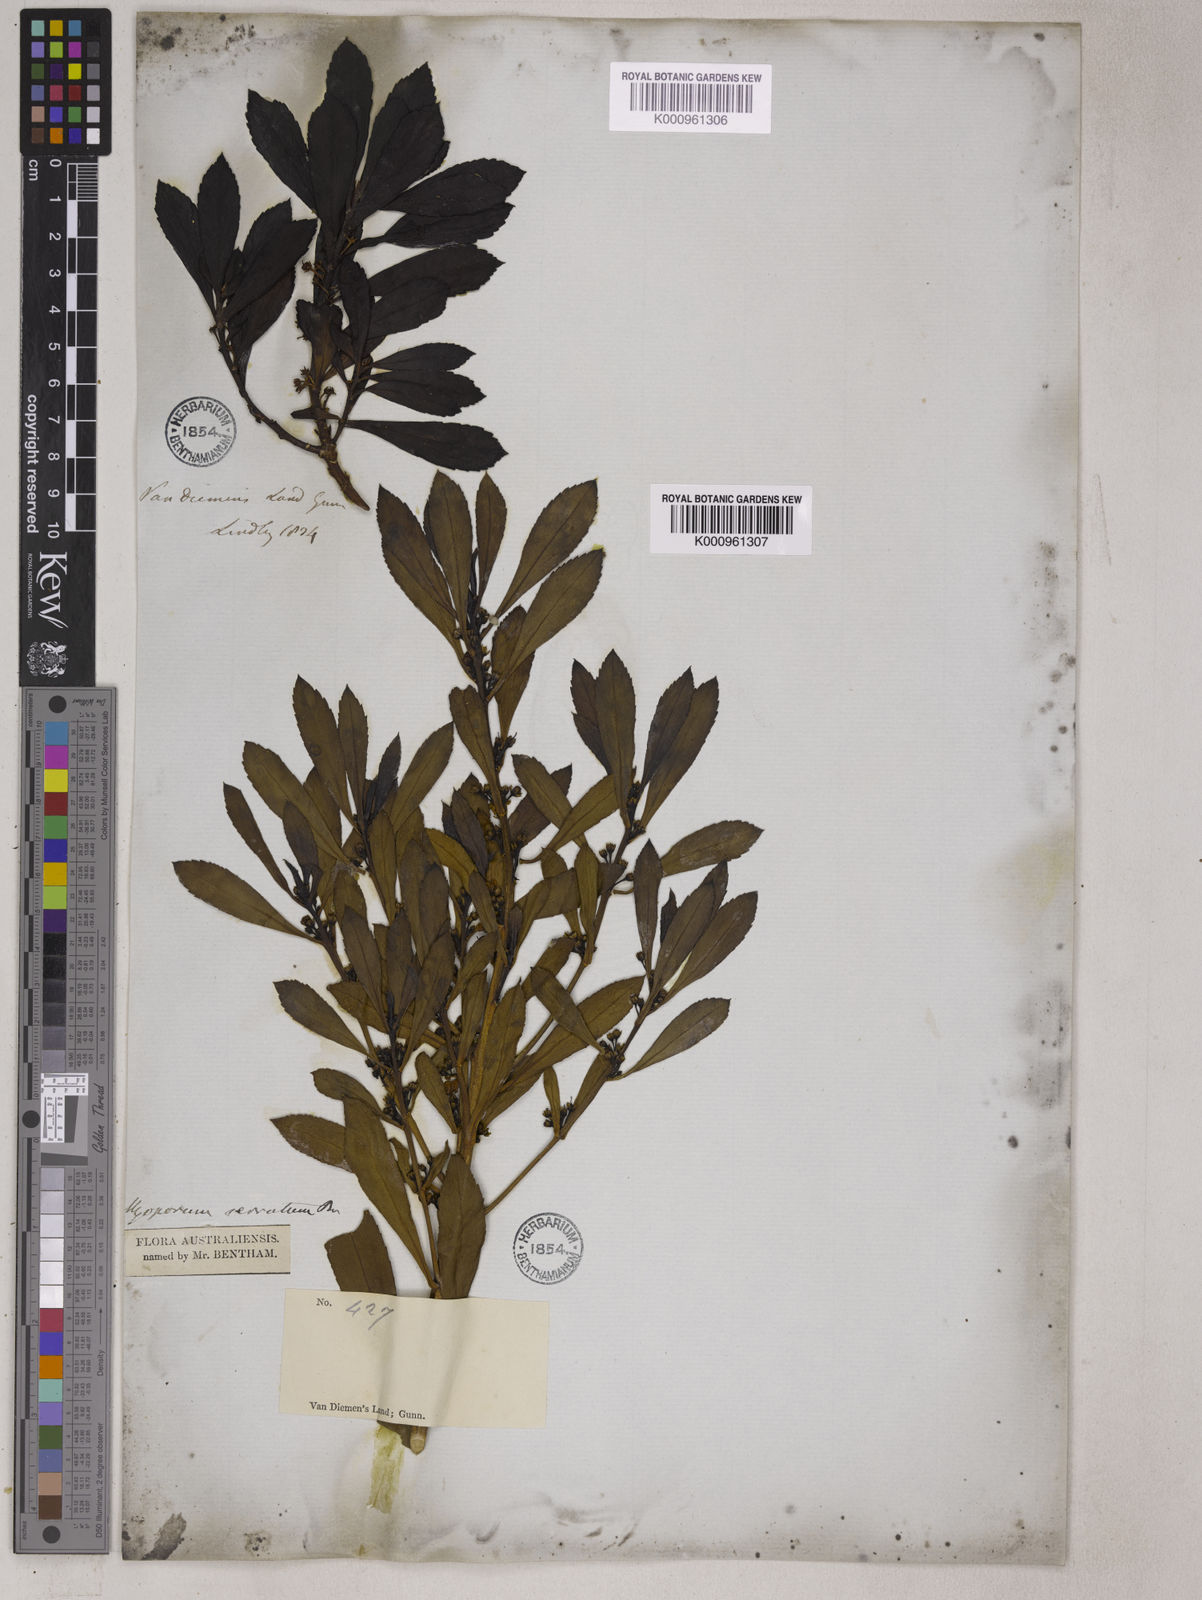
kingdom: Plantae
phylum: Tracheophyta
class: Magnoliopsida
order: Lamiales
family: Scrophulariaceae
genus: Myoporum
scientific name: Myoporum insulare
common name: Common boobialla
